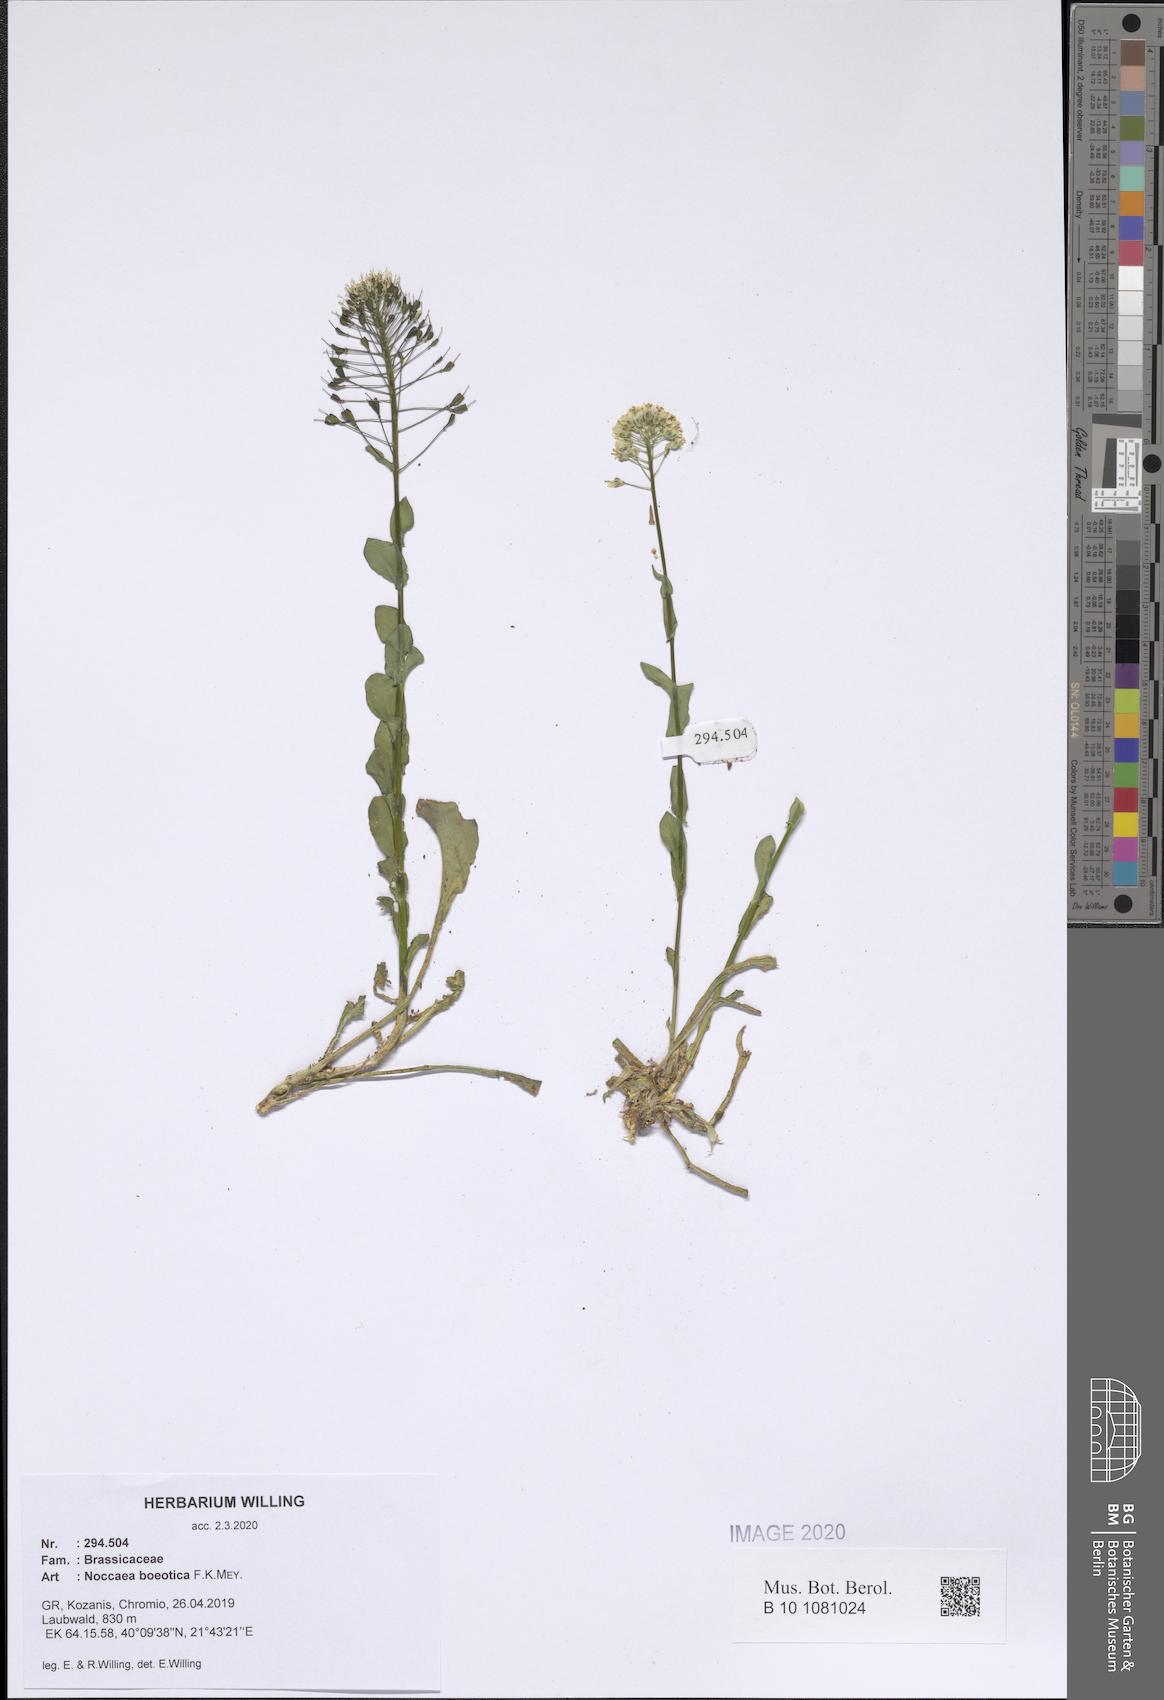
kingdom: Plantae
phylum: Tracheophyta
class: Magnoliopsida
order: Brassicales
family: Brassicaceae
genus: Noccaea
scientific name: Noccaea boeotica
